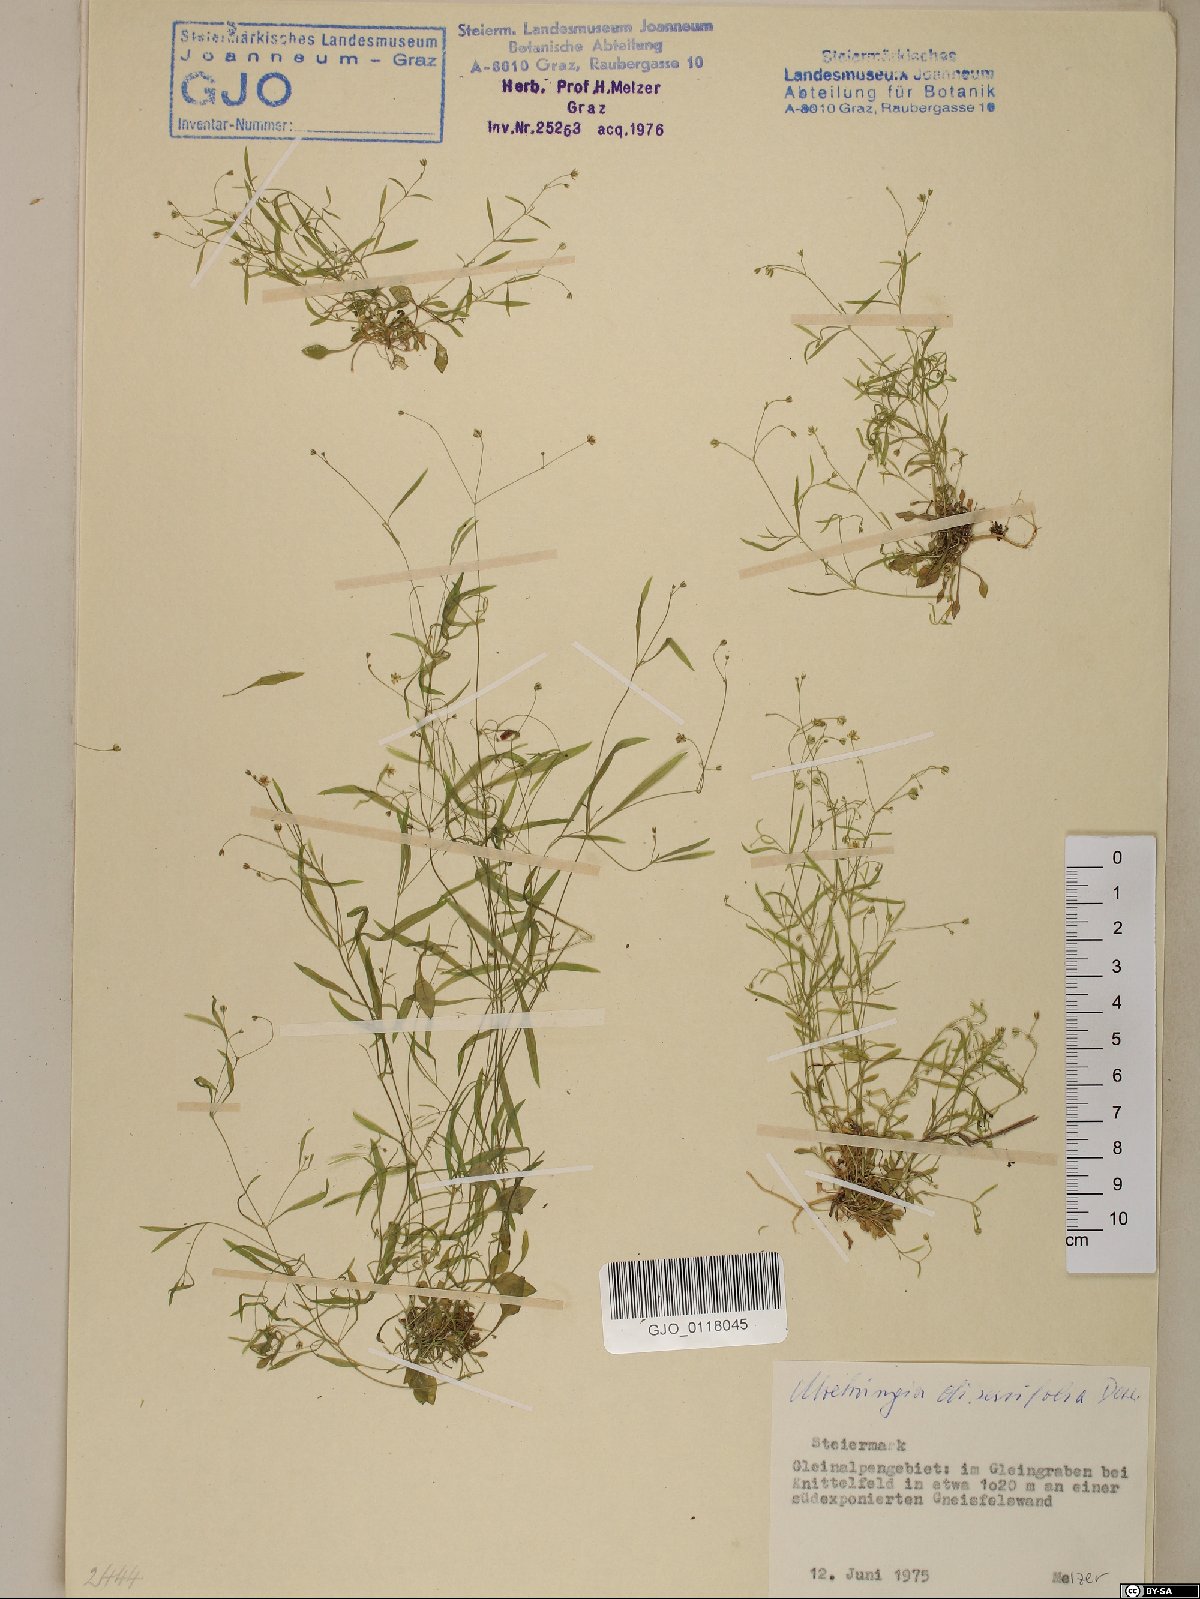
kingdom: Plantae
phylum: Tracheophyta
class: Magnoliopsida
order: Caryophyllales
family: Caryophyllaceae
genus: Moehringia
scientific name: Moehringia diversifolia
